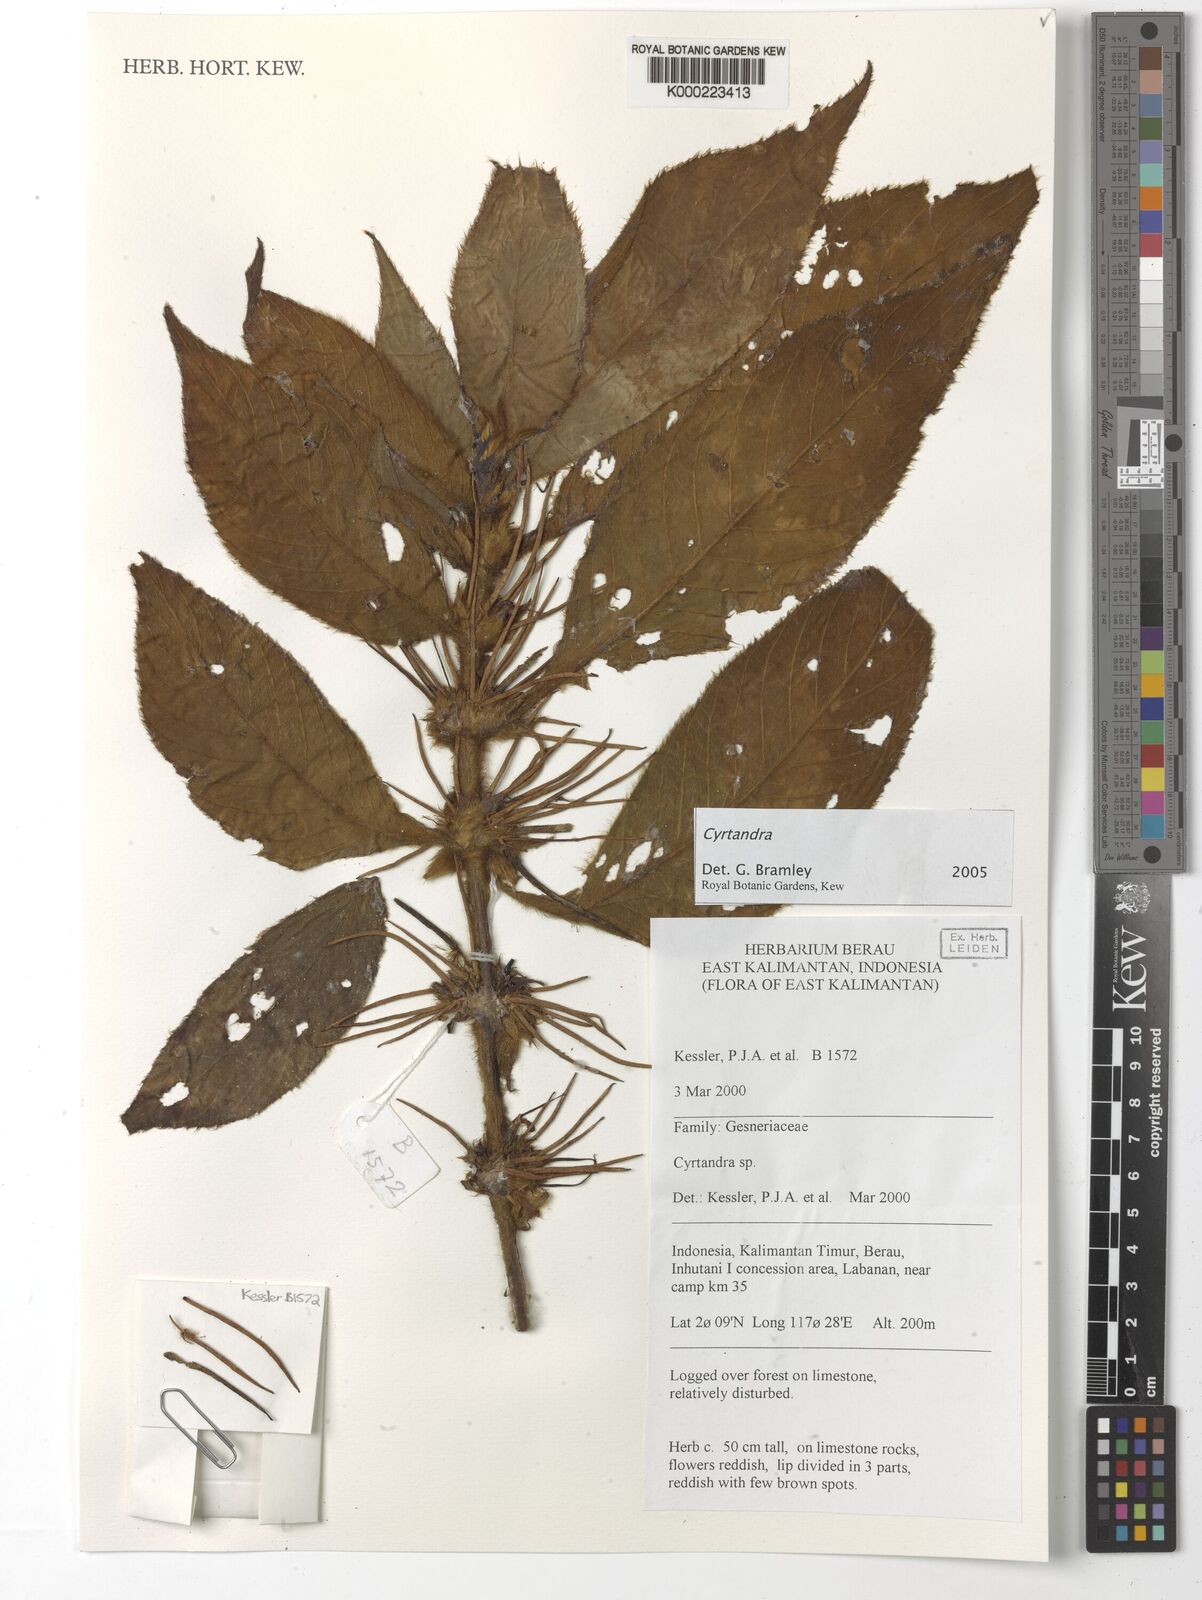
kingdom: Plantae
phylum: Tracheophyta
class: Magnoliopsida
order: Lamiales
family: Gesneriaceae
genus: Cyrtandra
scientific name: Cyrtandra
